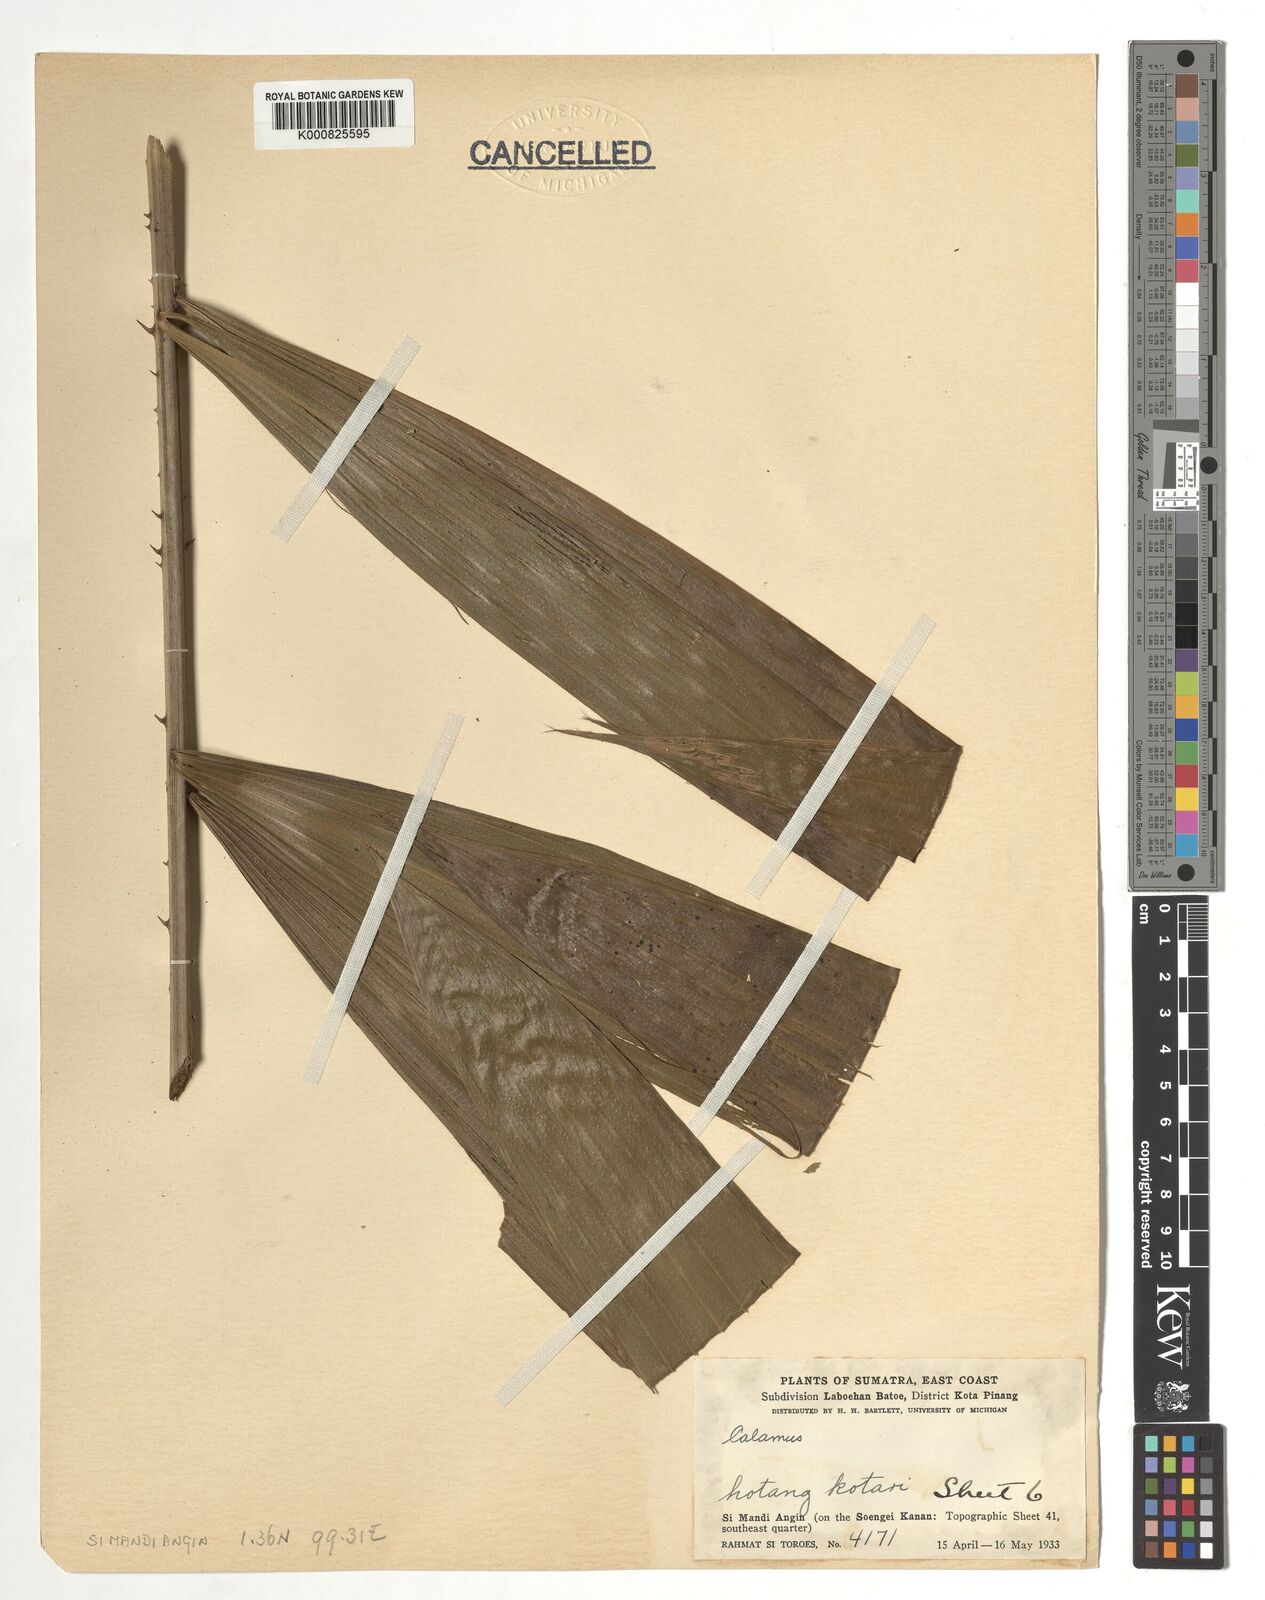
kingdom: Plantae
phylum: Tracheophyta
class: Liliopsida
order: Arecales
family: Arecaceae
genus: Calamus
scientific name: Calamus
